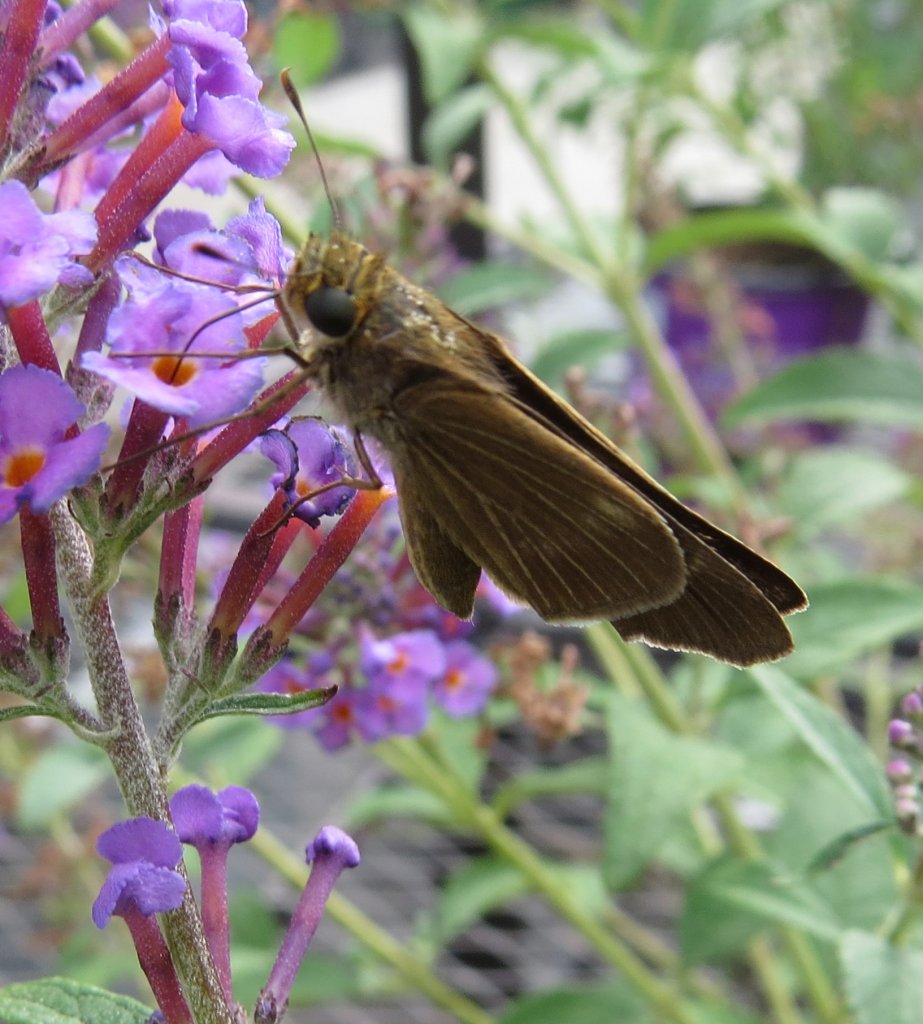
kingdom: Animalia
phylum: Arthropoda
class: Insecta
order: Lepidoptera
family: Hesperiidae
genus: Panoquina
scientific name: Panoquina ocola
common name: Ocola Skipper
